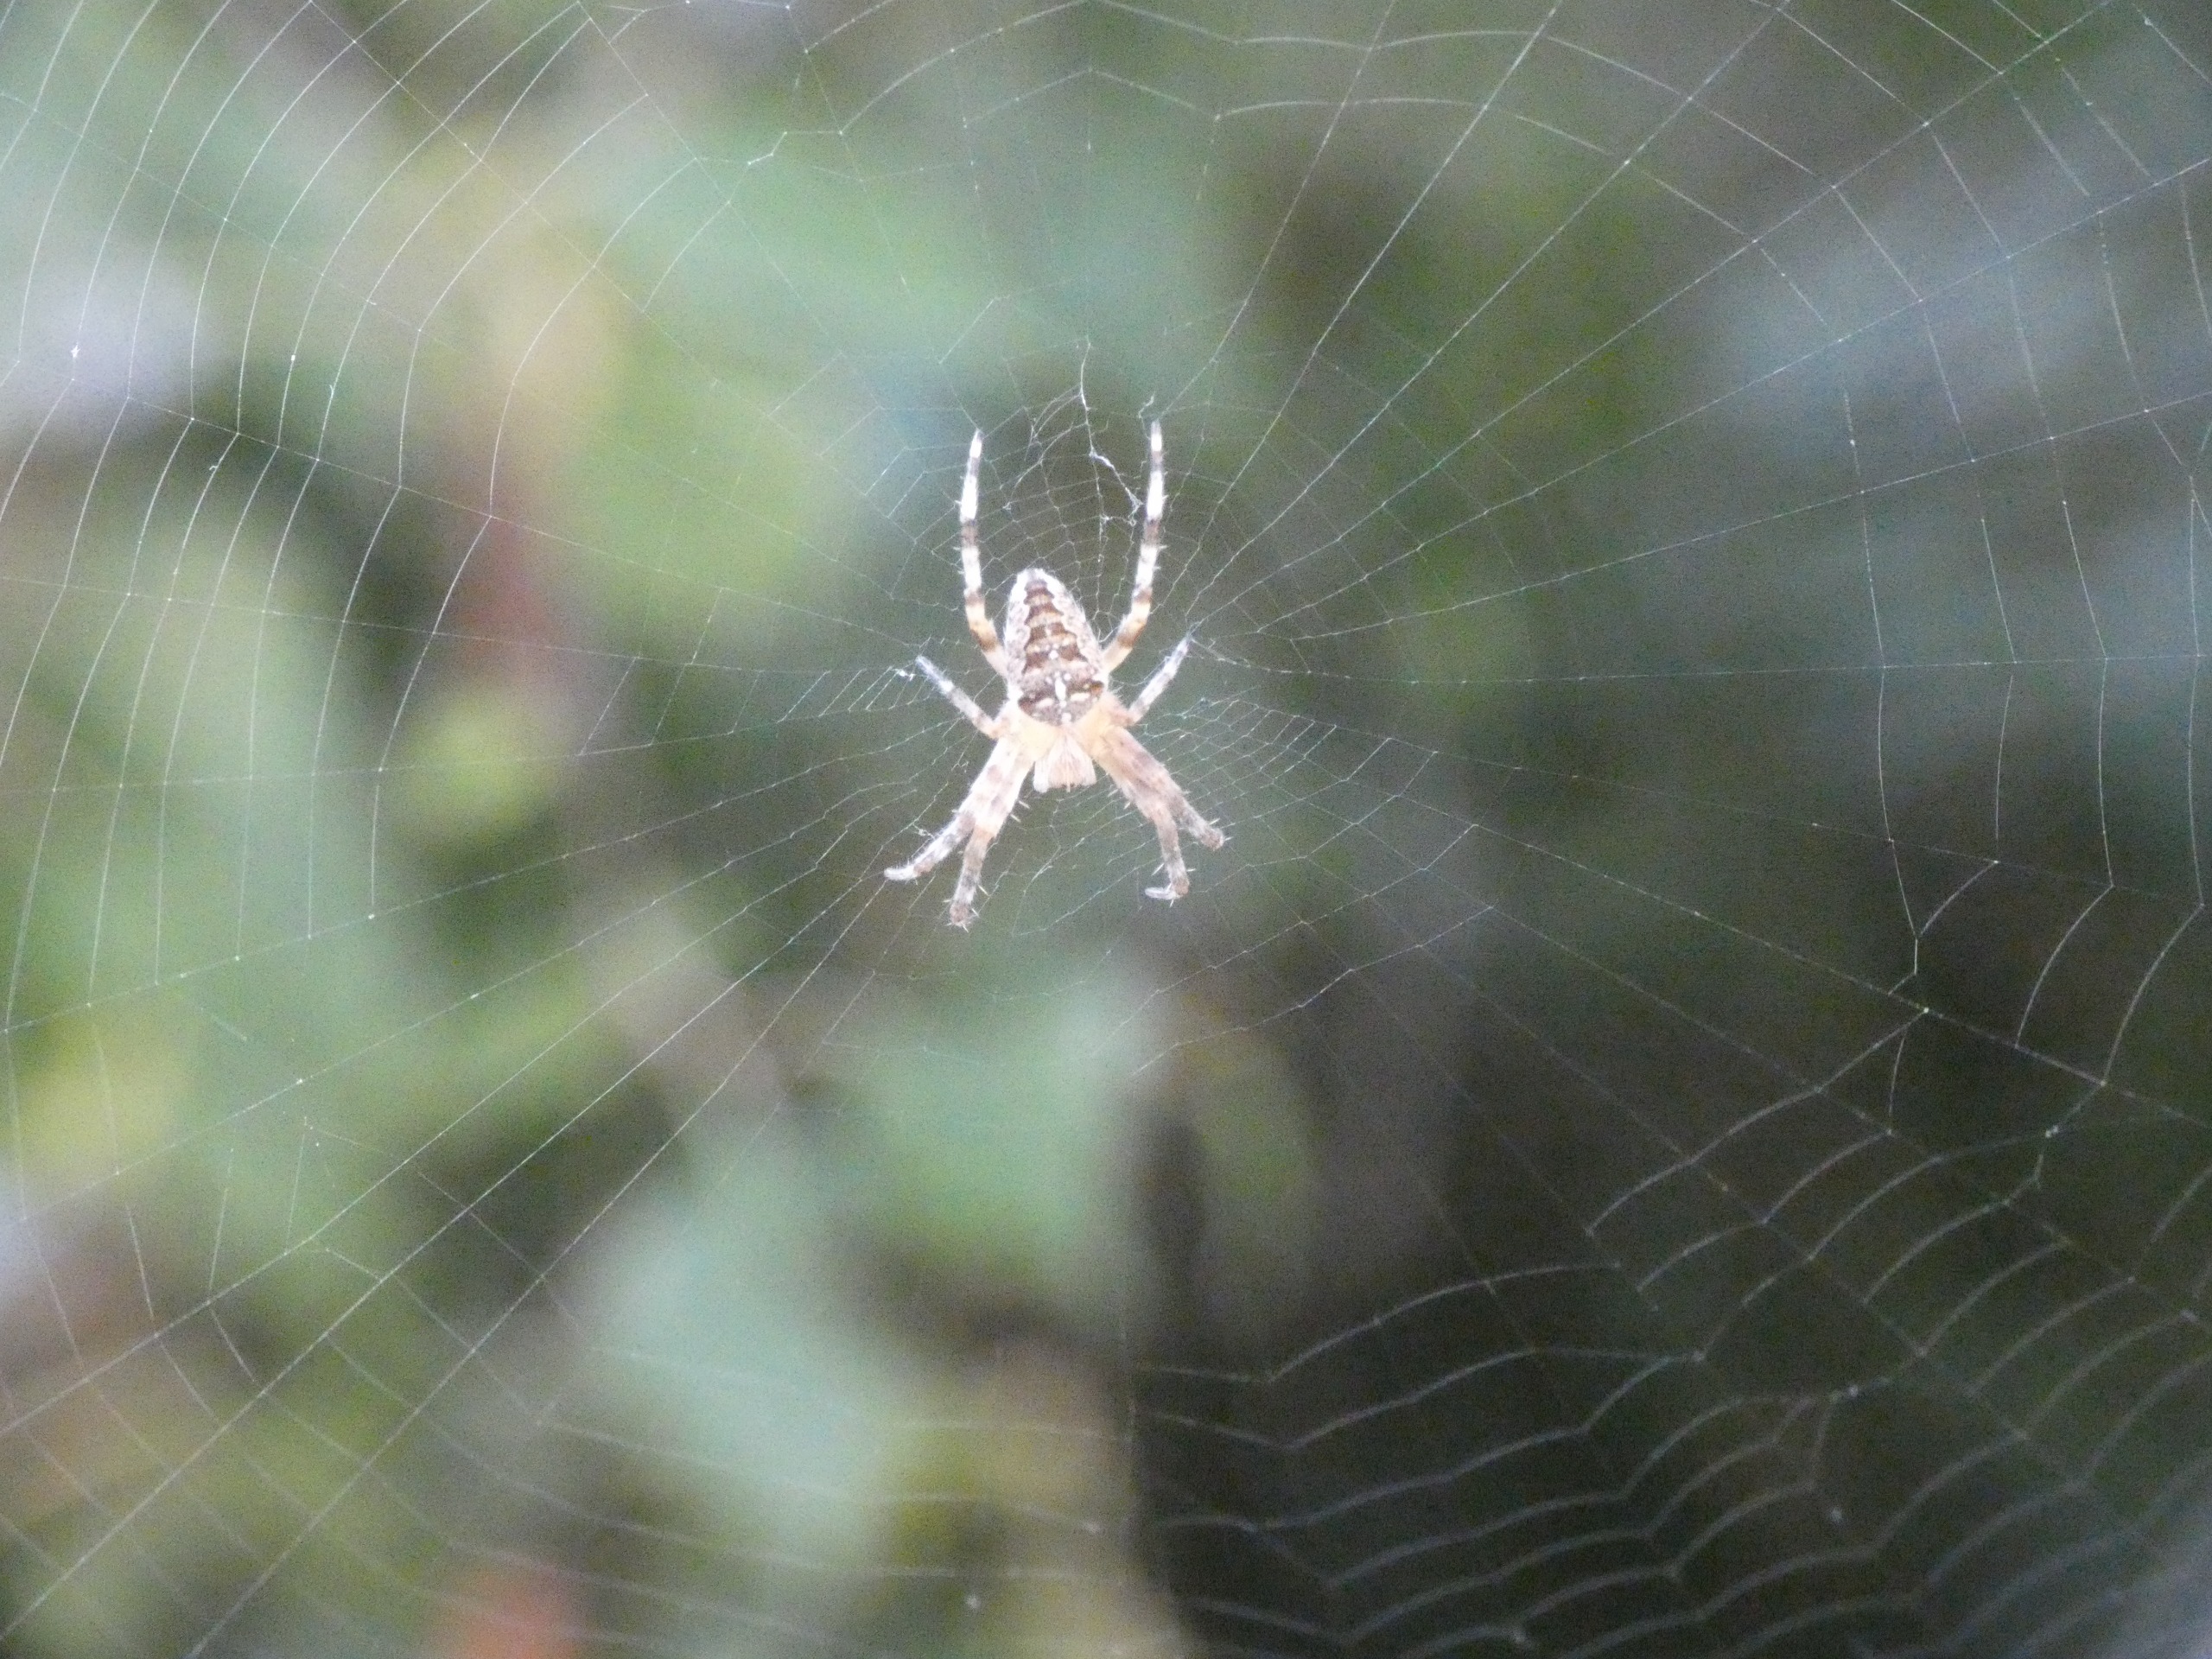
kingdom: Animalia
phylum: Arthropoda
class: Arachnida
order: Araneae
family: Araneidae
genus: Araneus
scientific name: Araneus diadematus
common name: Korsedderkop
